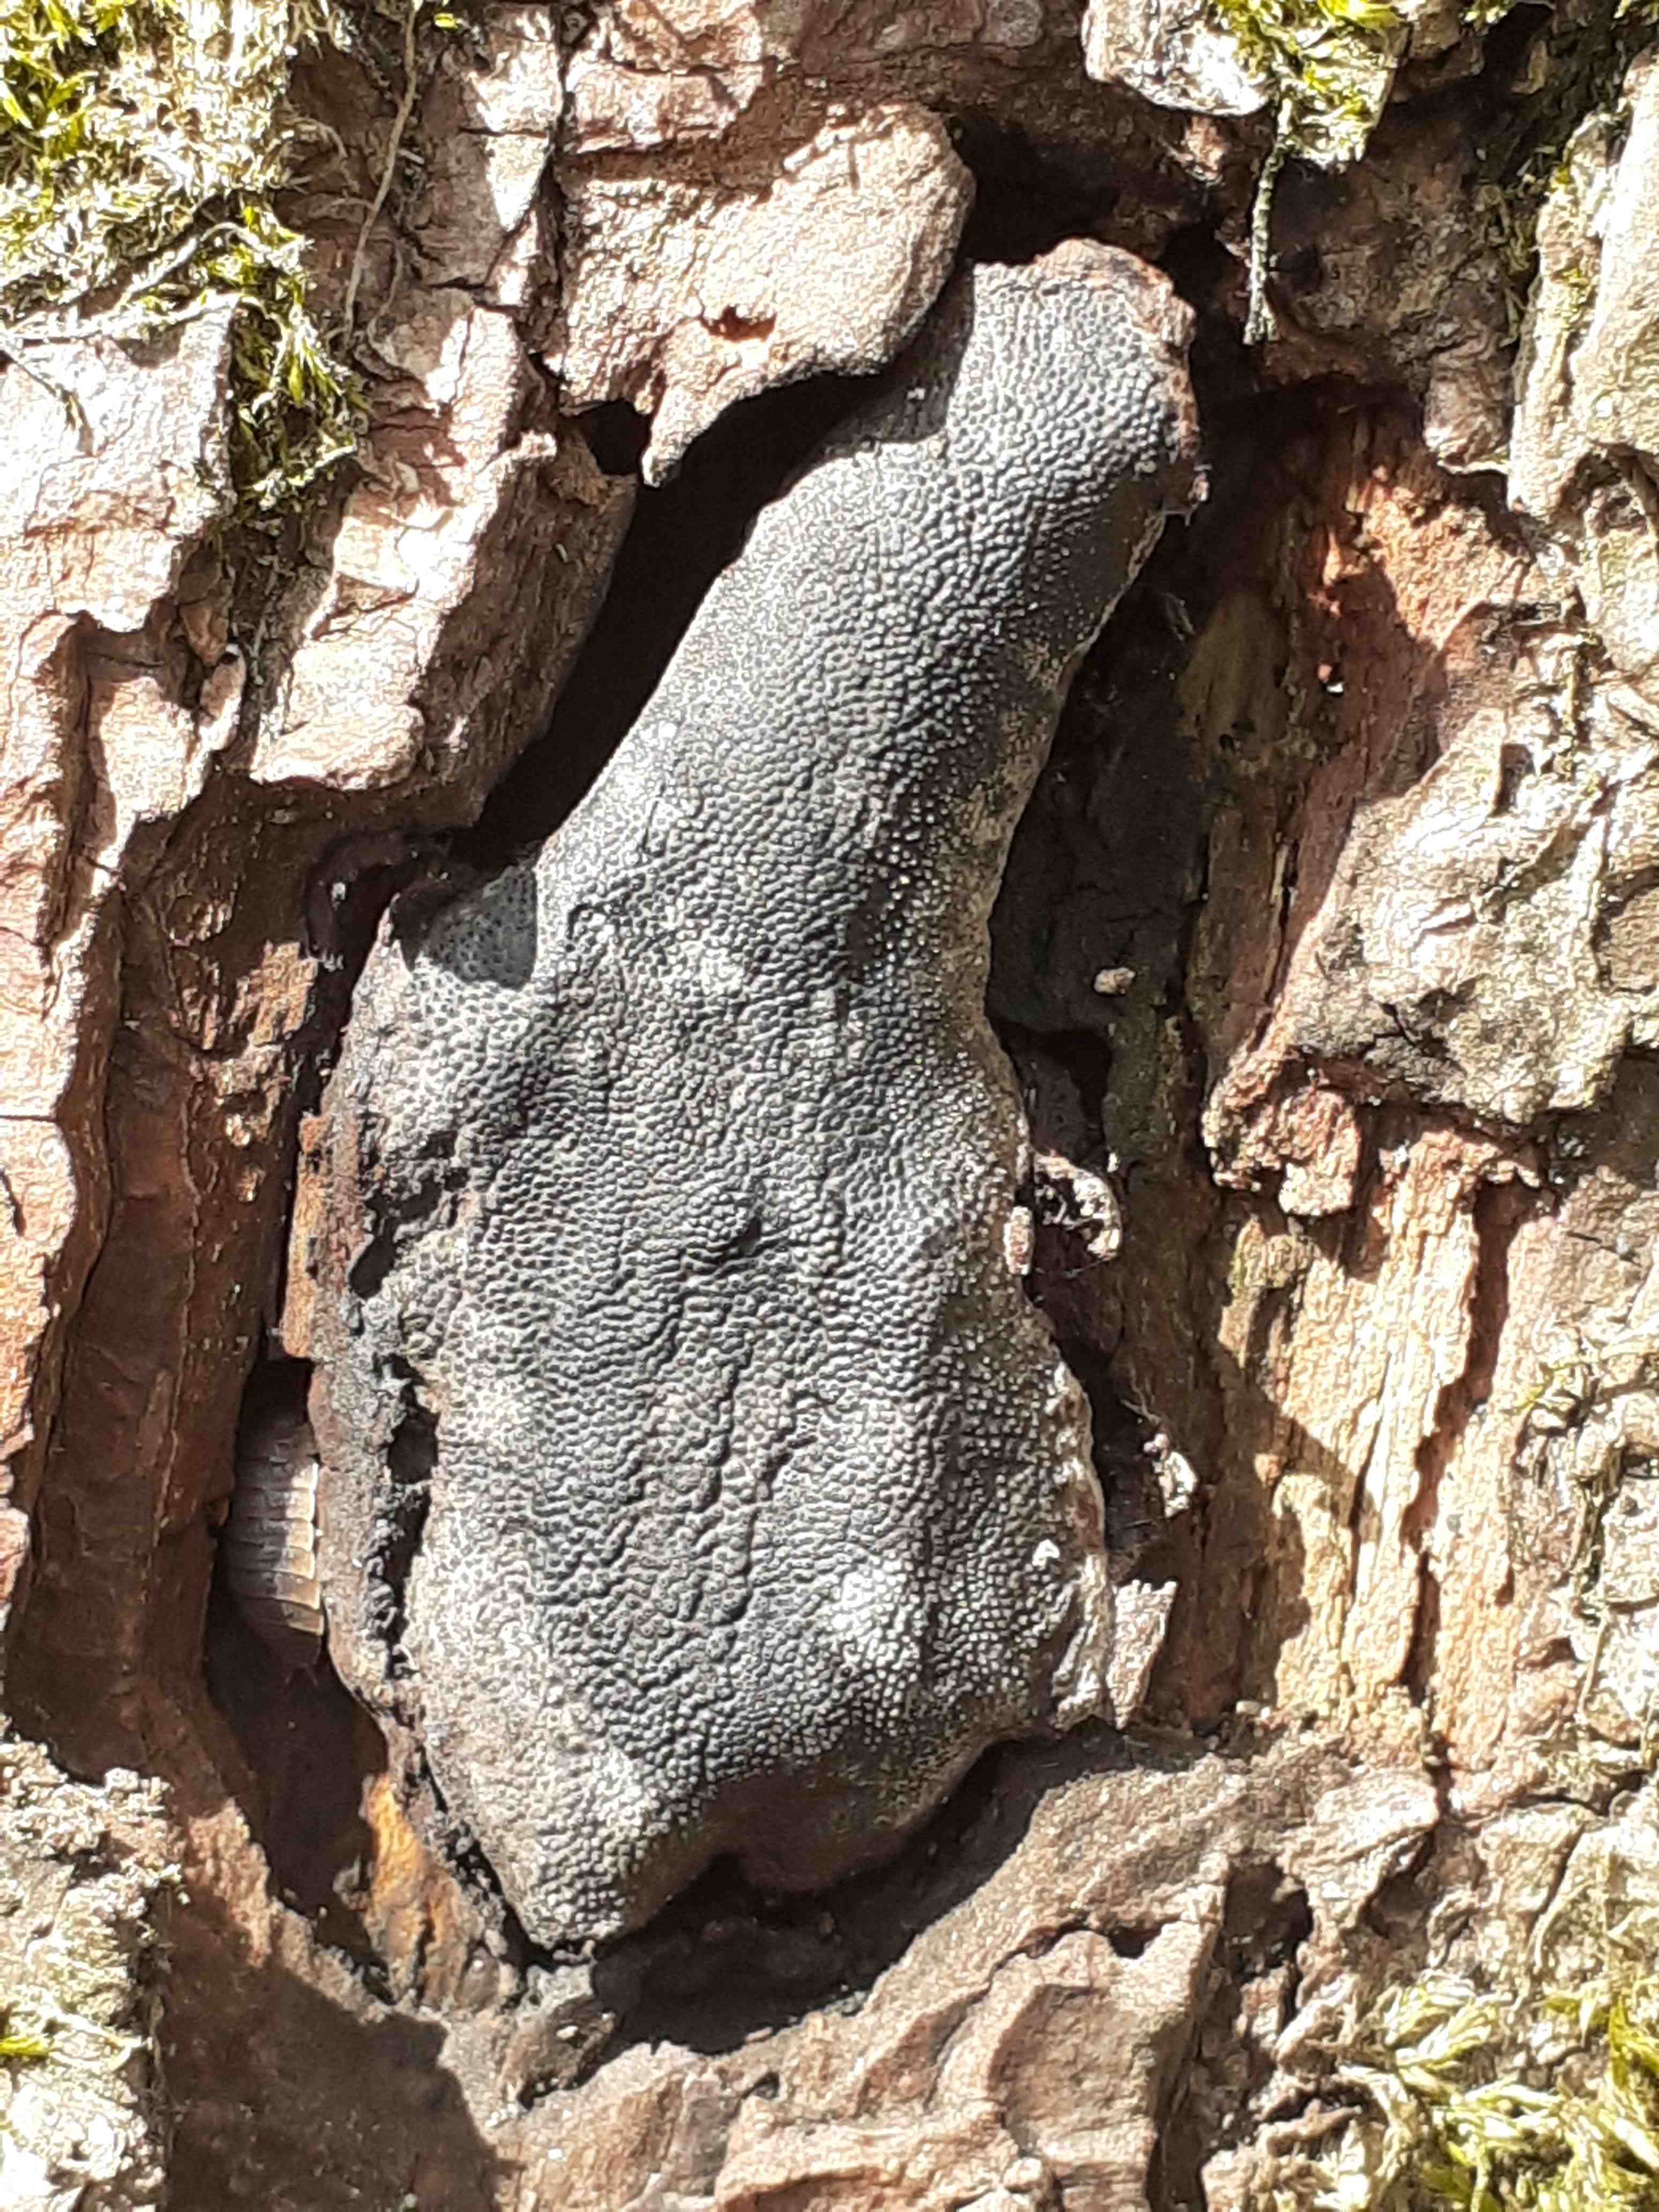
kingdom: Fungi
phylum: Ascomycota
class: Sordariomycetes
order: Boliniales
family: Boliniaceae
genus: Camarops
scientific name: Camarops polysperma
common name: elle-kulsnegl
